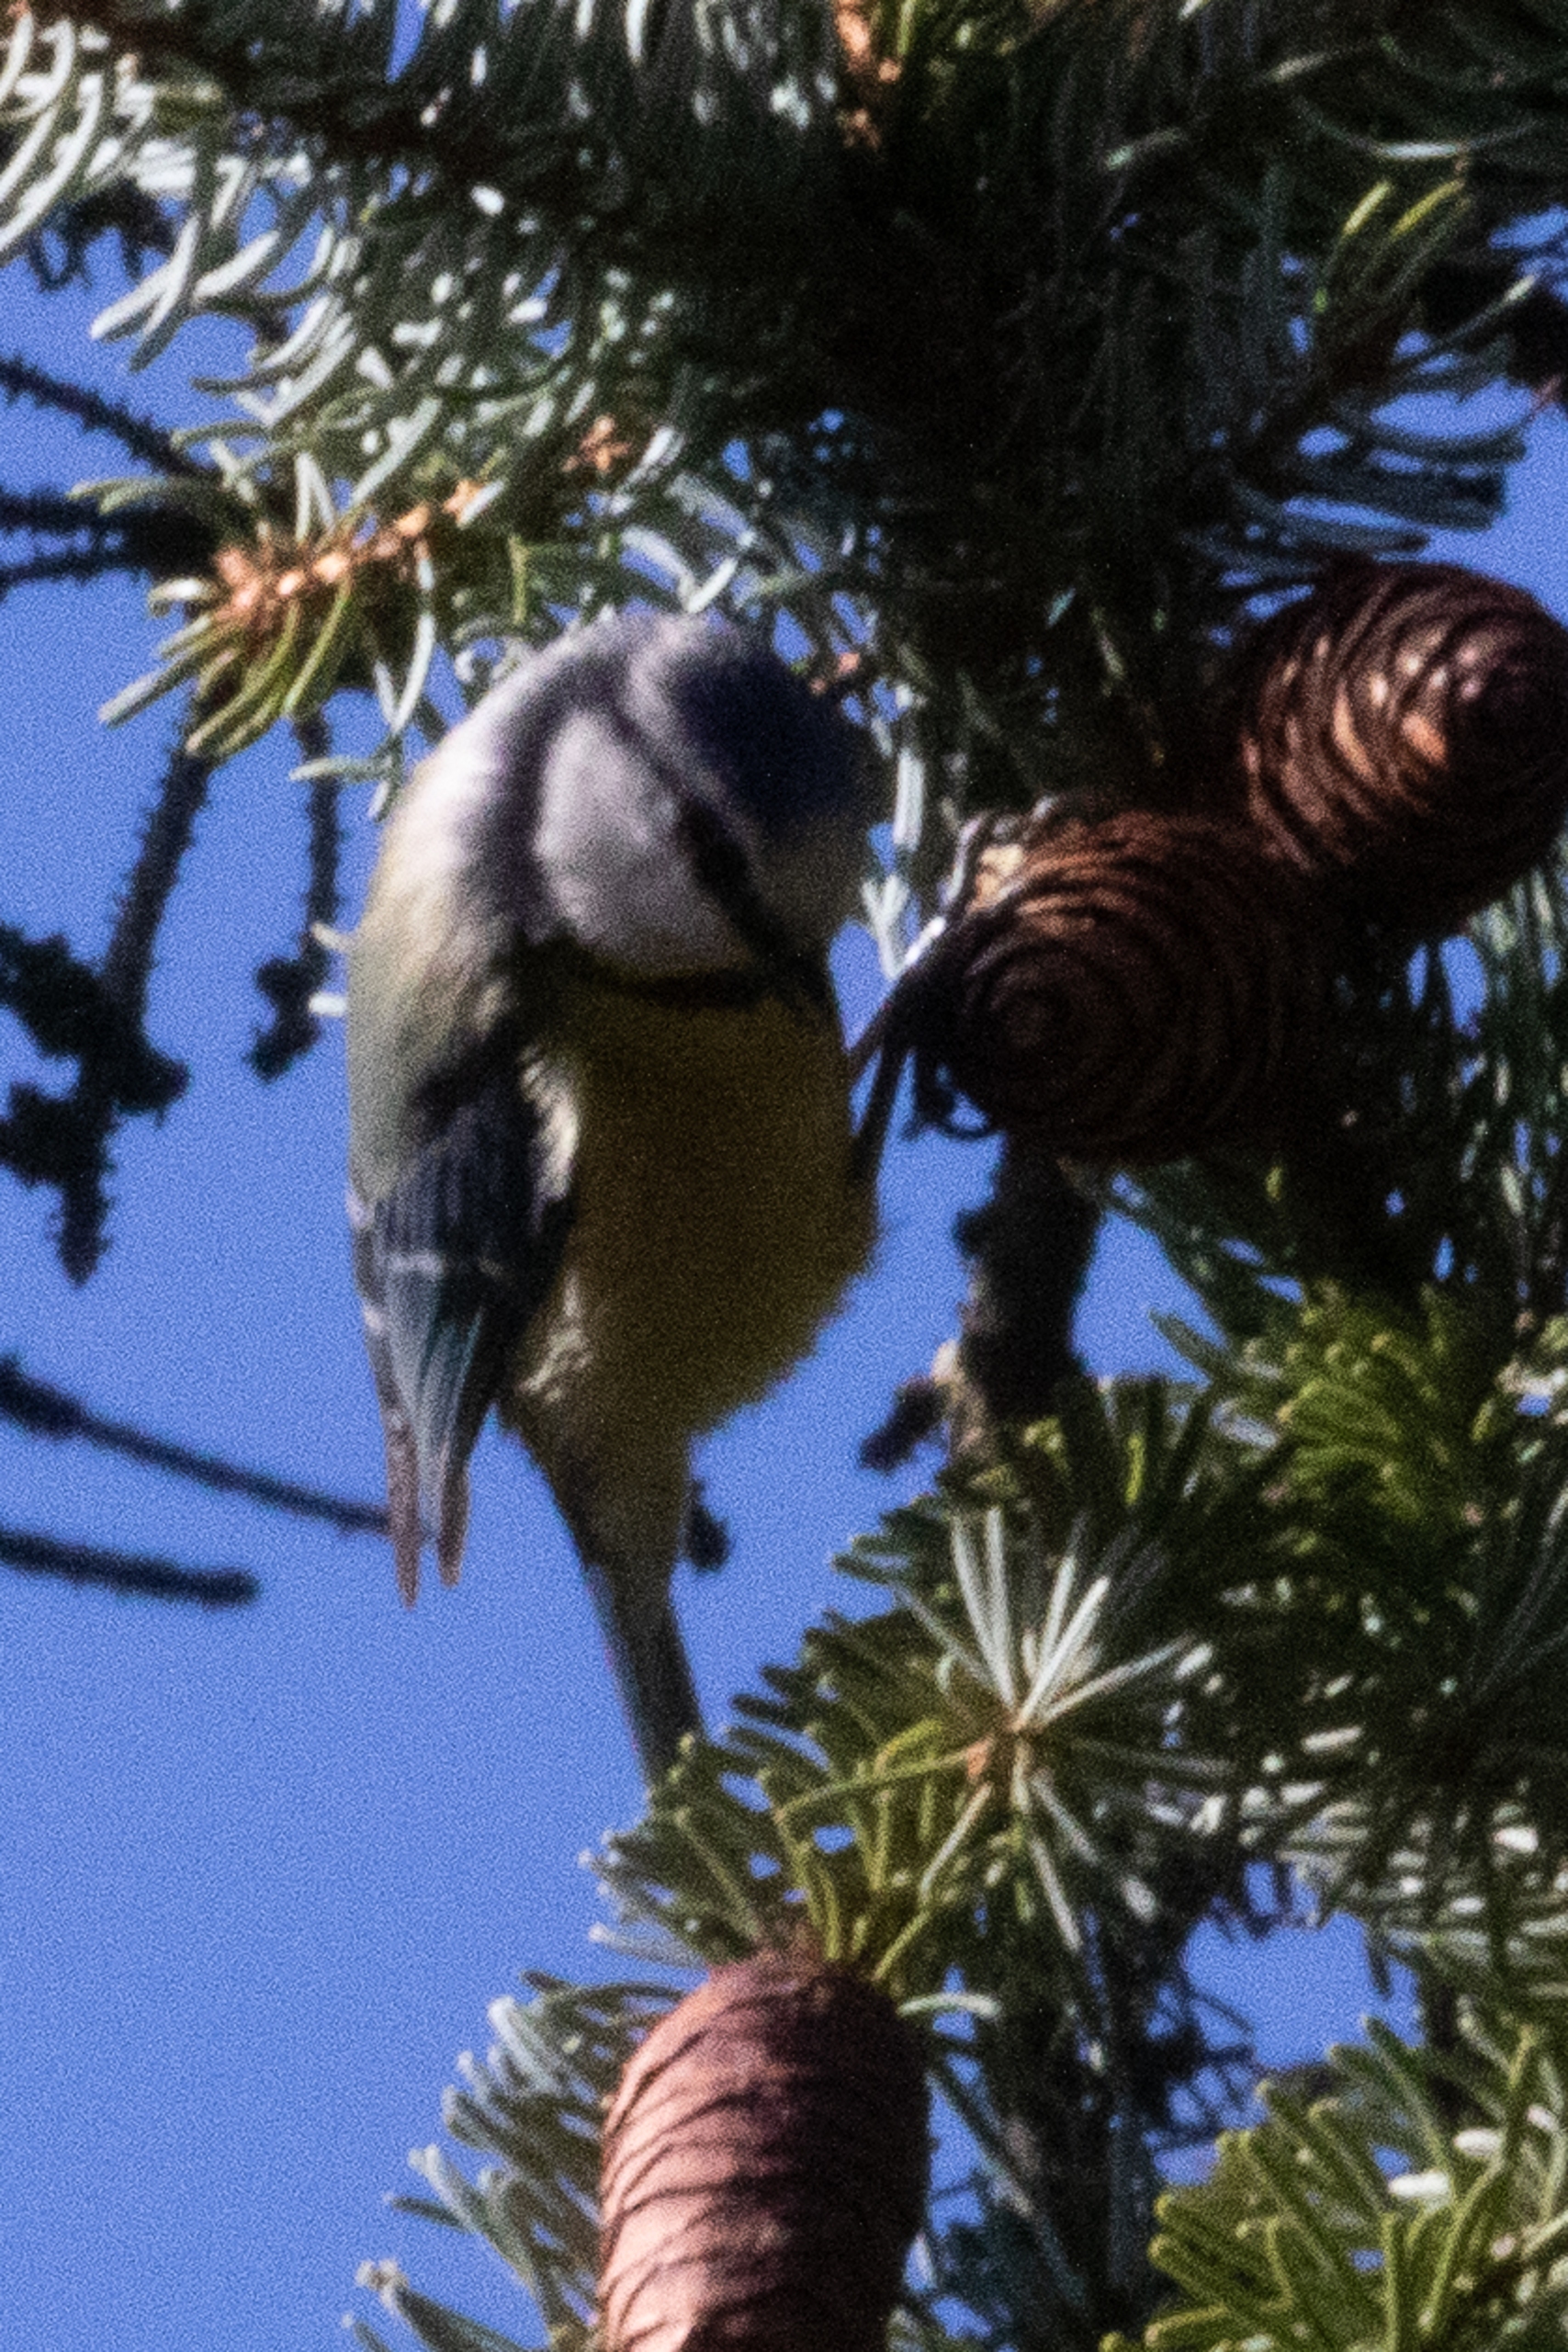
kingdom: Animalia
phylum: Chordata
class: Aves
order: Passeriformes
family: Paridae
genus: Cyanistes
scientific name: Cyanistes caeruleus
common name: Blåmejse
